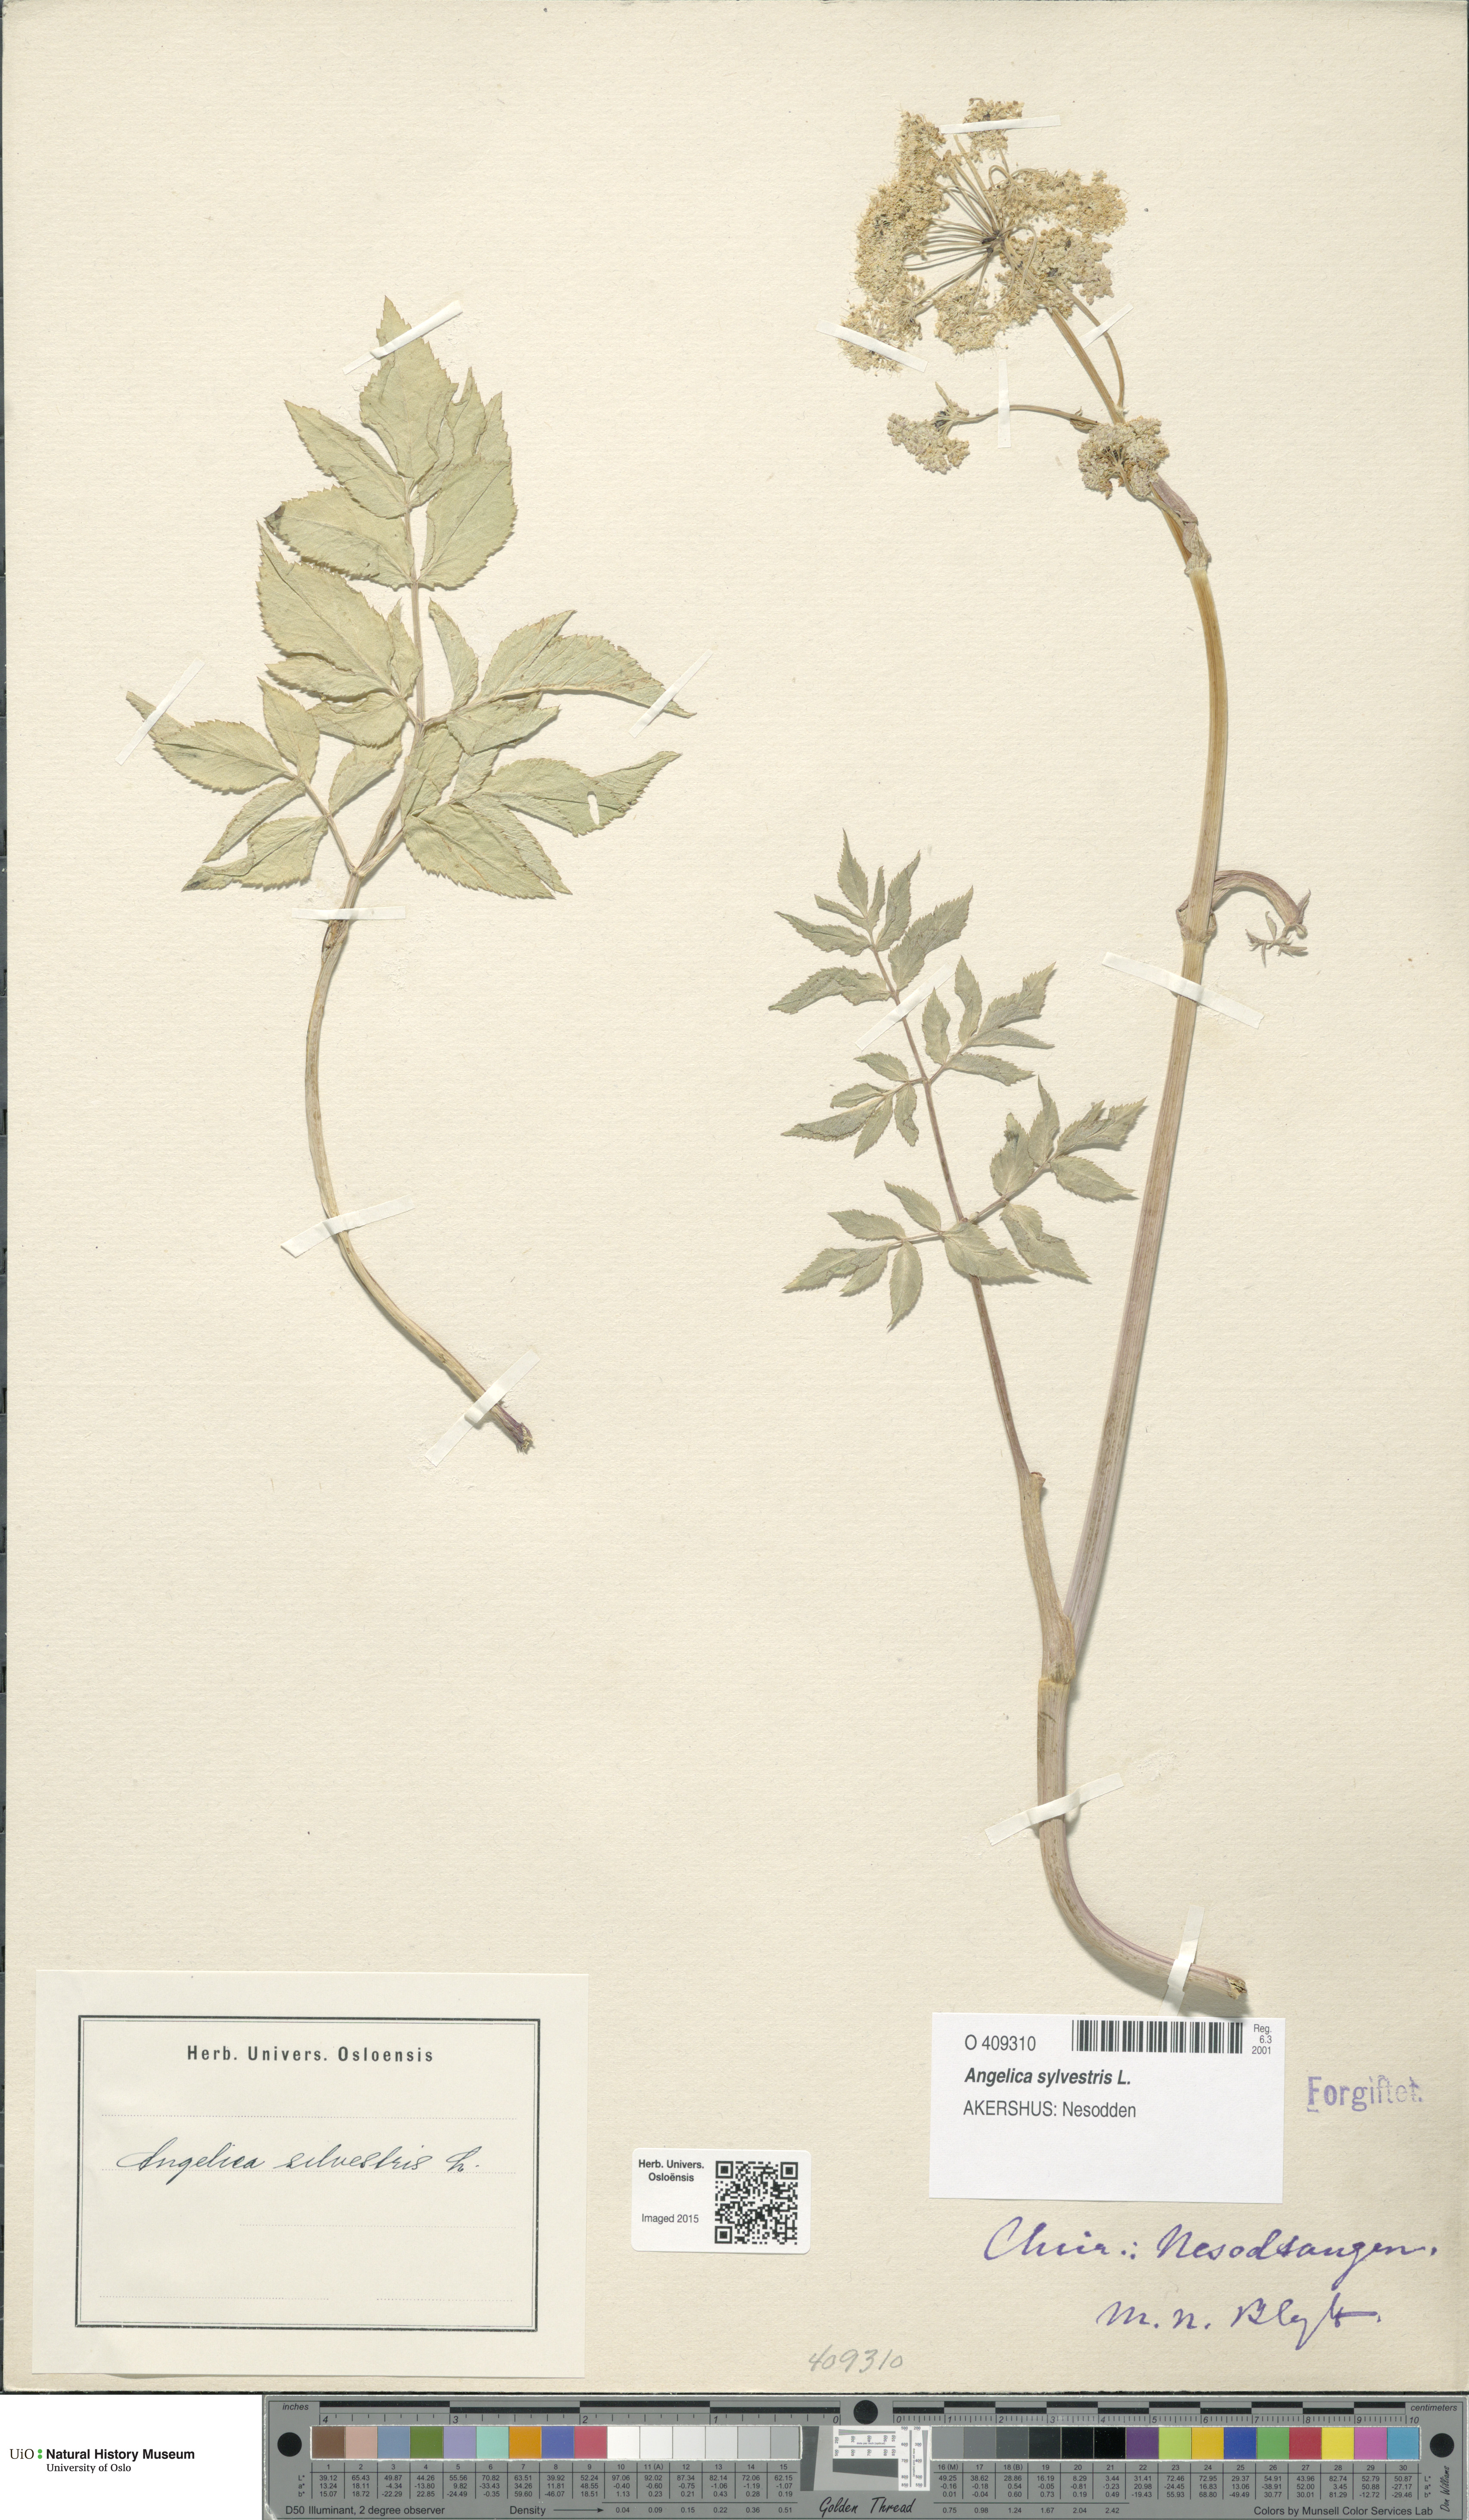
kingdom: Plantae
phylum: Tracheophyta
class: Magnoliopsida
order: Apiales
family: Apiaceae
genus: Angelica
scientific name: Angelica sylvestris
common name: Wild angelica
